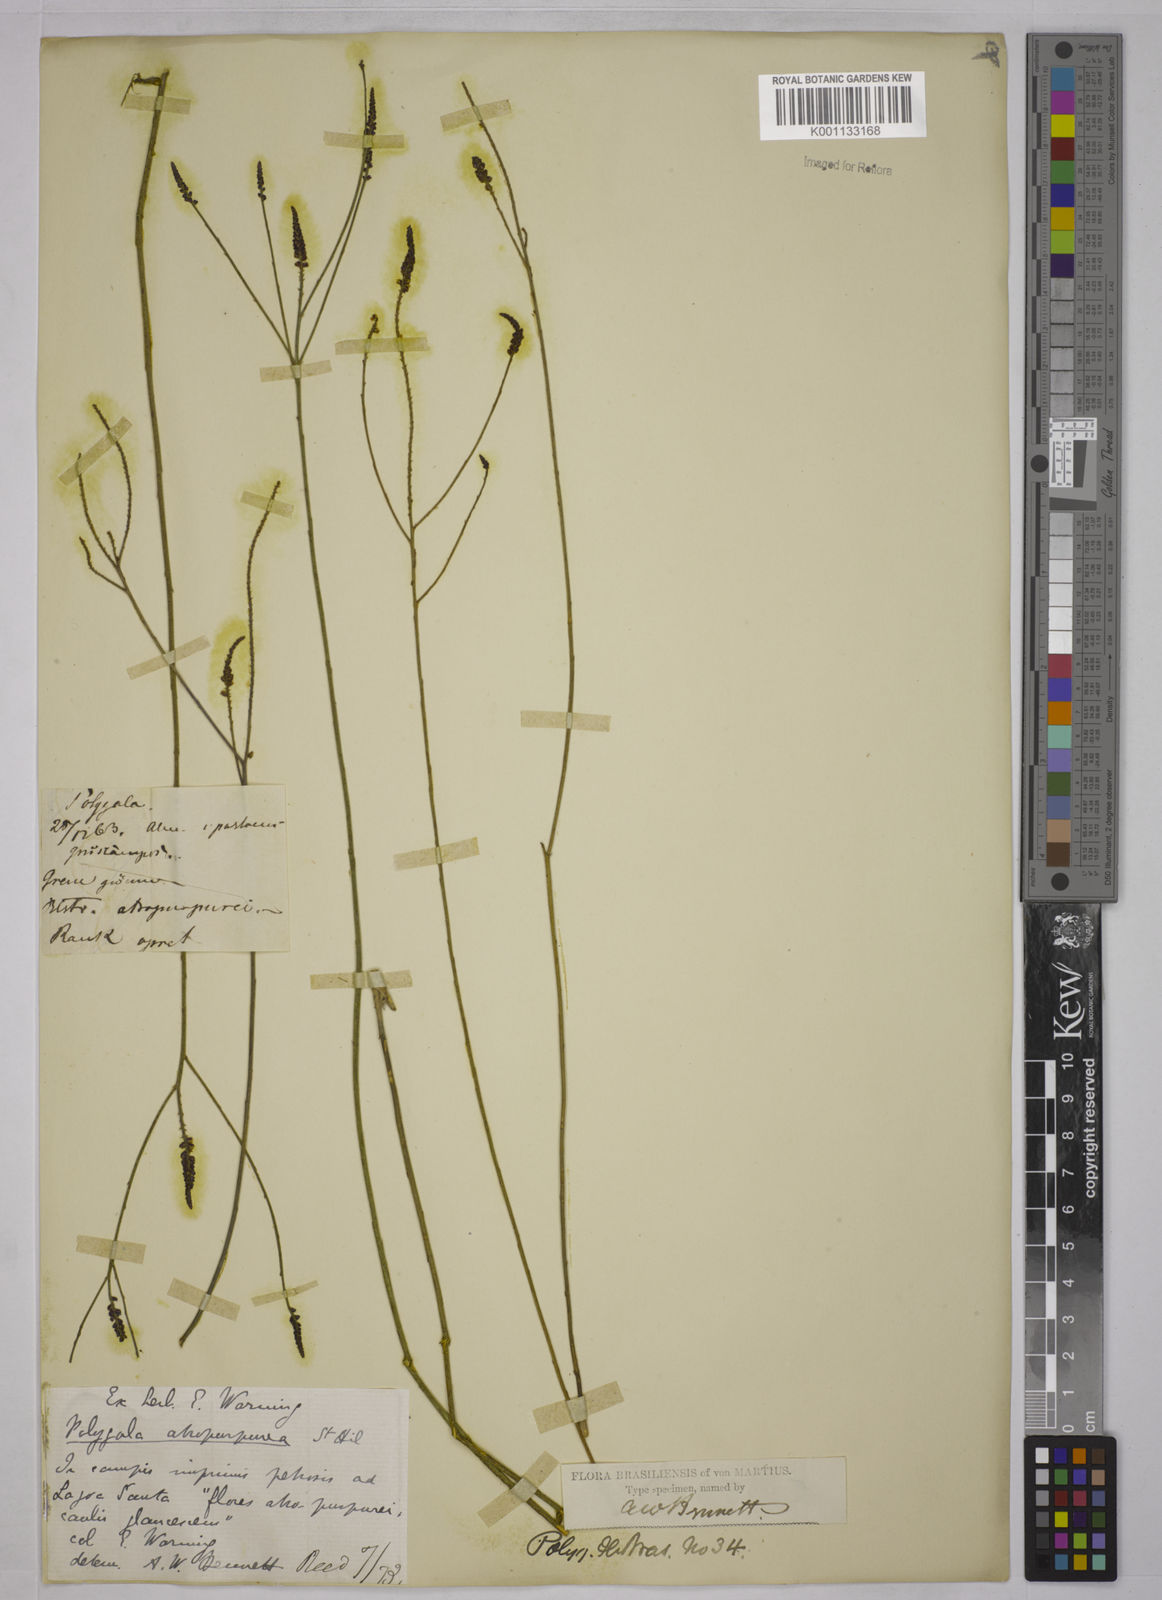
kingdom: Plantae
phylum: Tracheophyta
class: Magnoliopsida
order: Fabales
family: Polygalaceae
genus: Polygala
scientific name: Polygala atropurpurea
